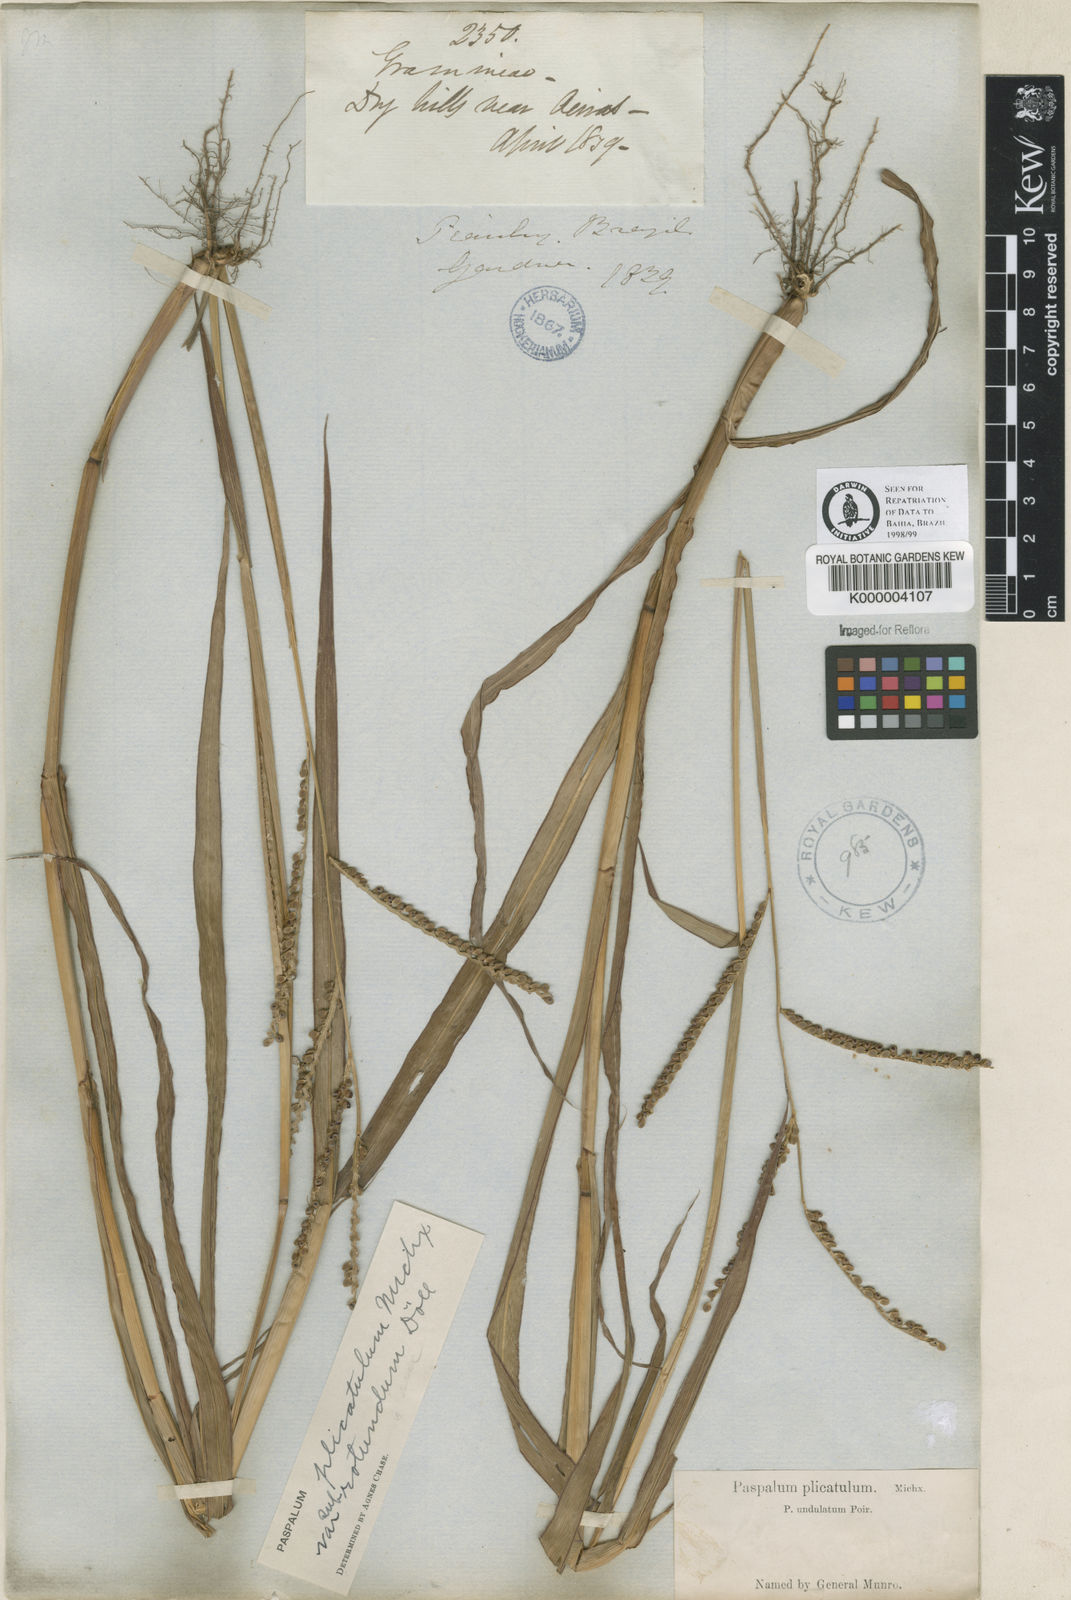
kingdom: Plantae
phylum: Tracheophyta
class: Liliopsida
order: Poales
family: Poaceae
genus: Paspalum
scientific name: Paspalum
